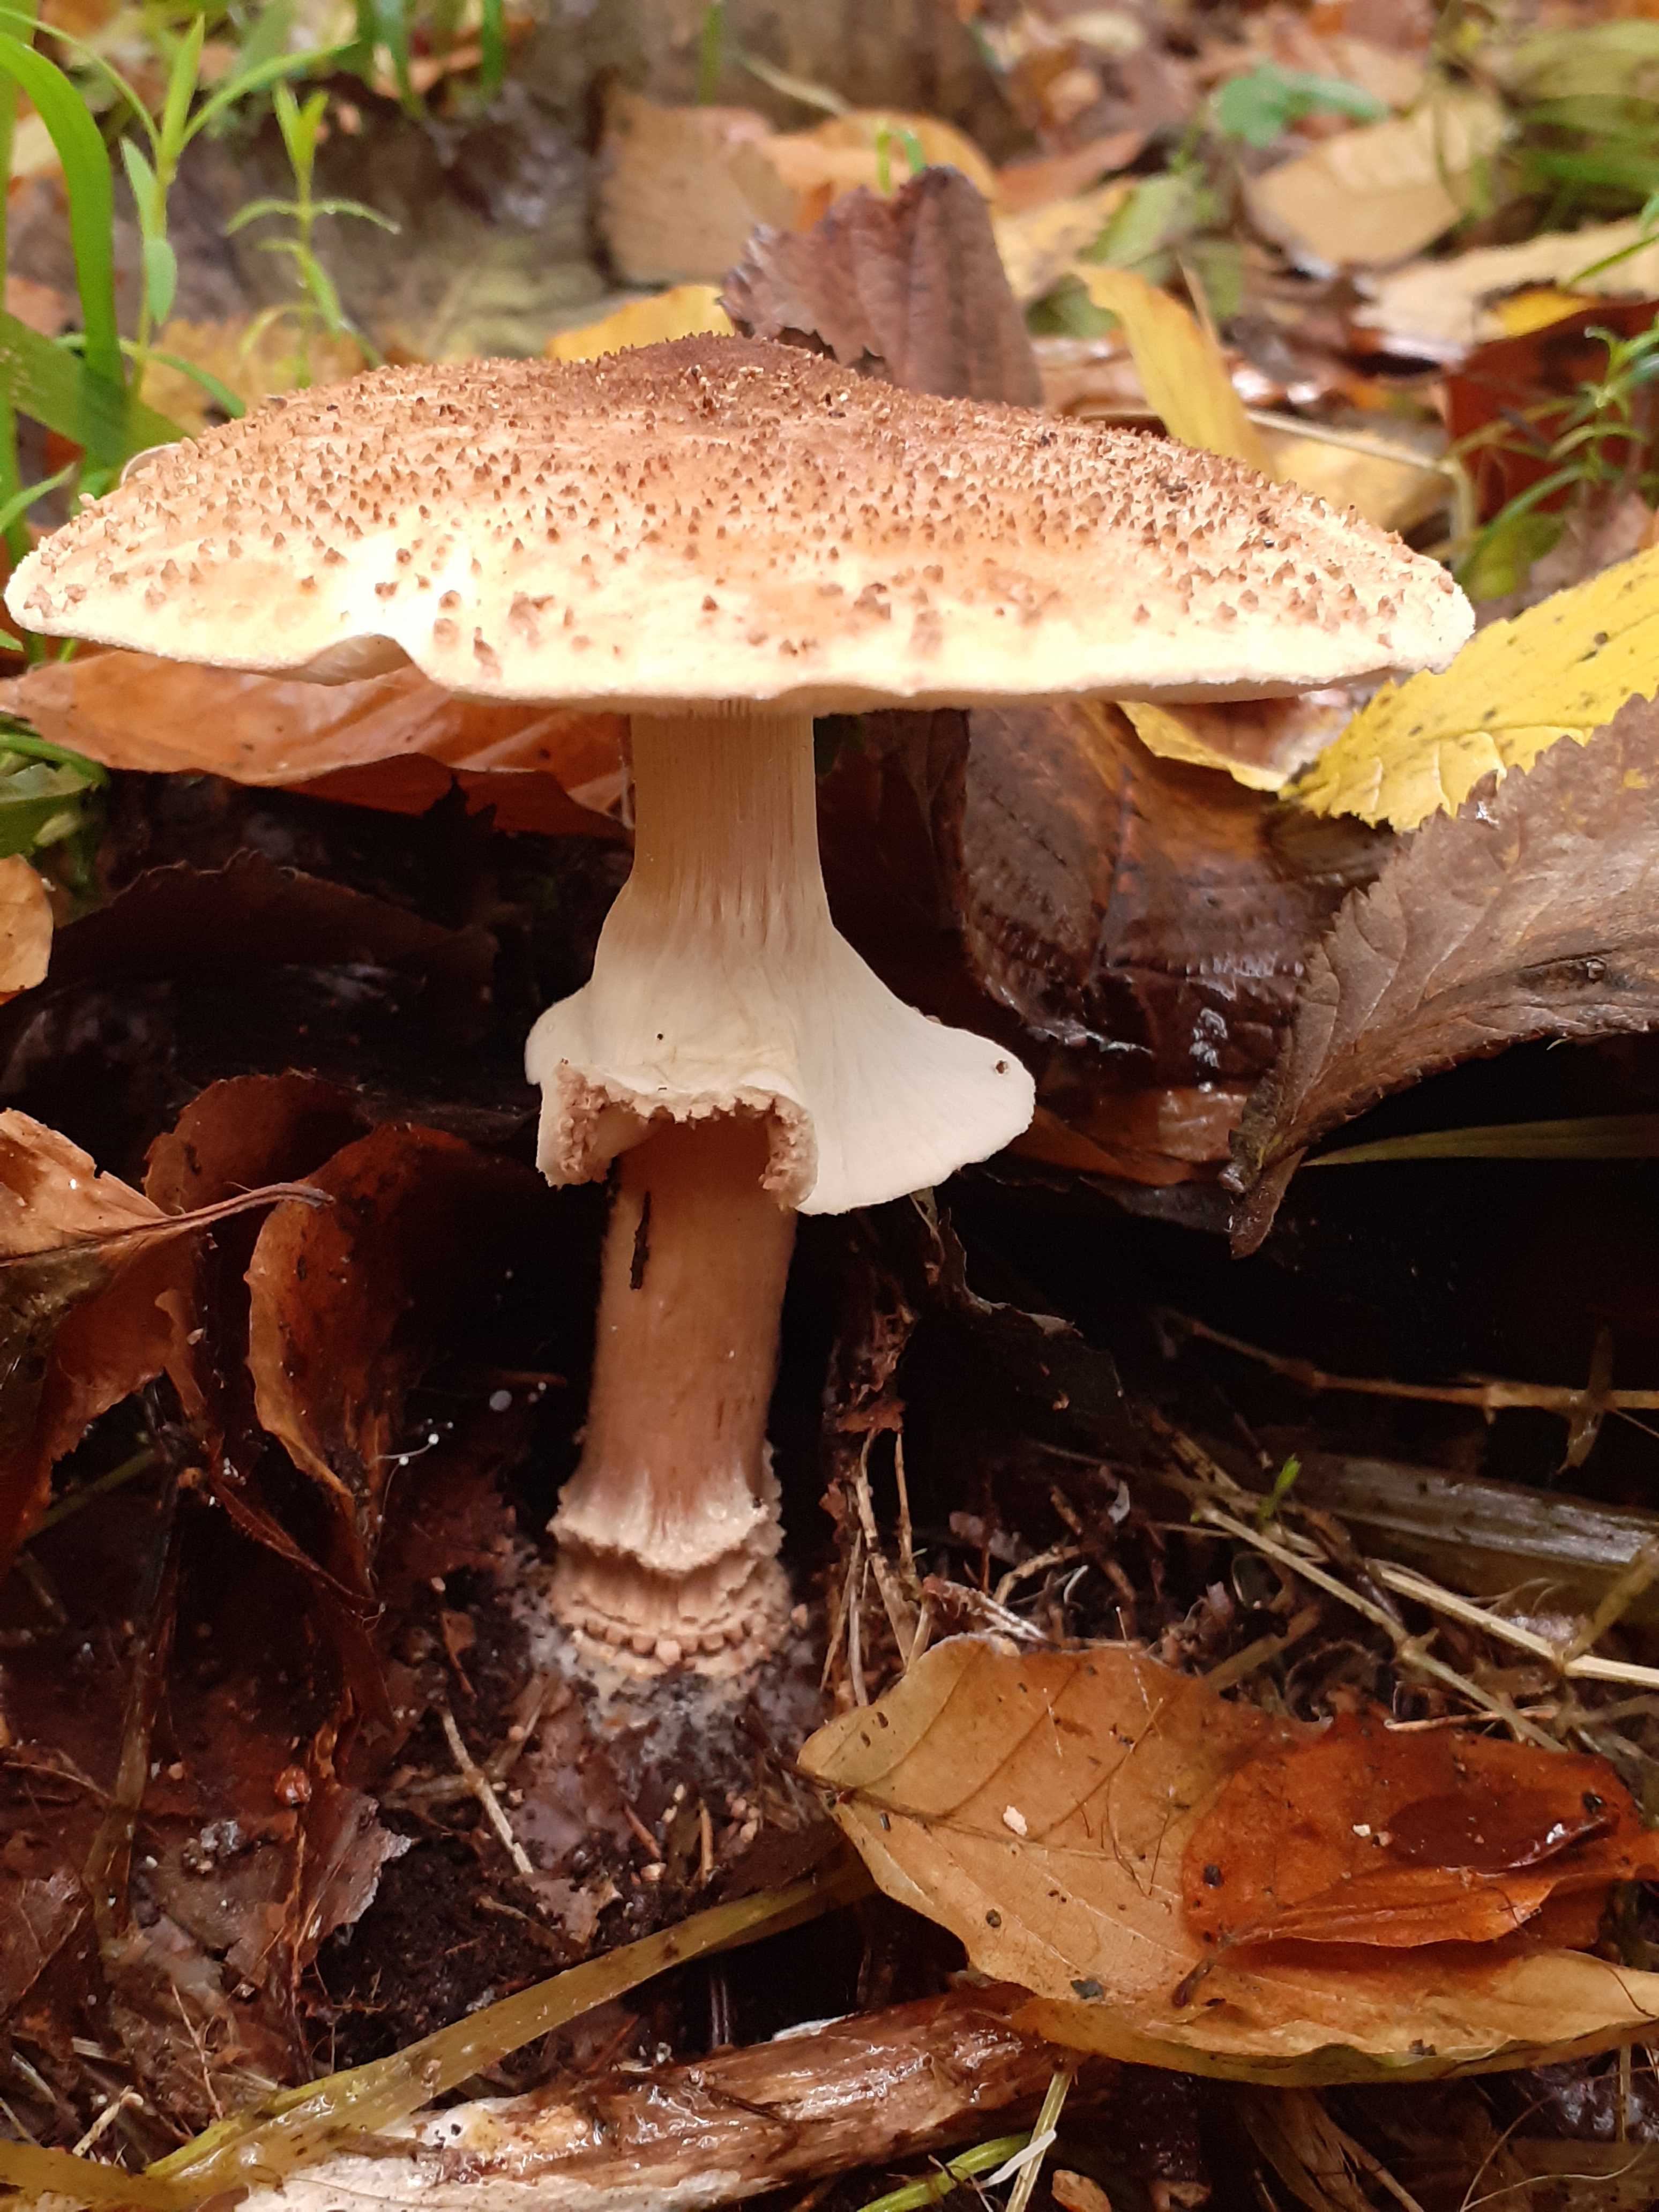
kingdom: Fungi
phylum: Basidiomycota
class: Agaricomycetes
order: Agaricales
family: Agaricaceae
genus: Echinoderma
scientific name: Echinoderma asperum
